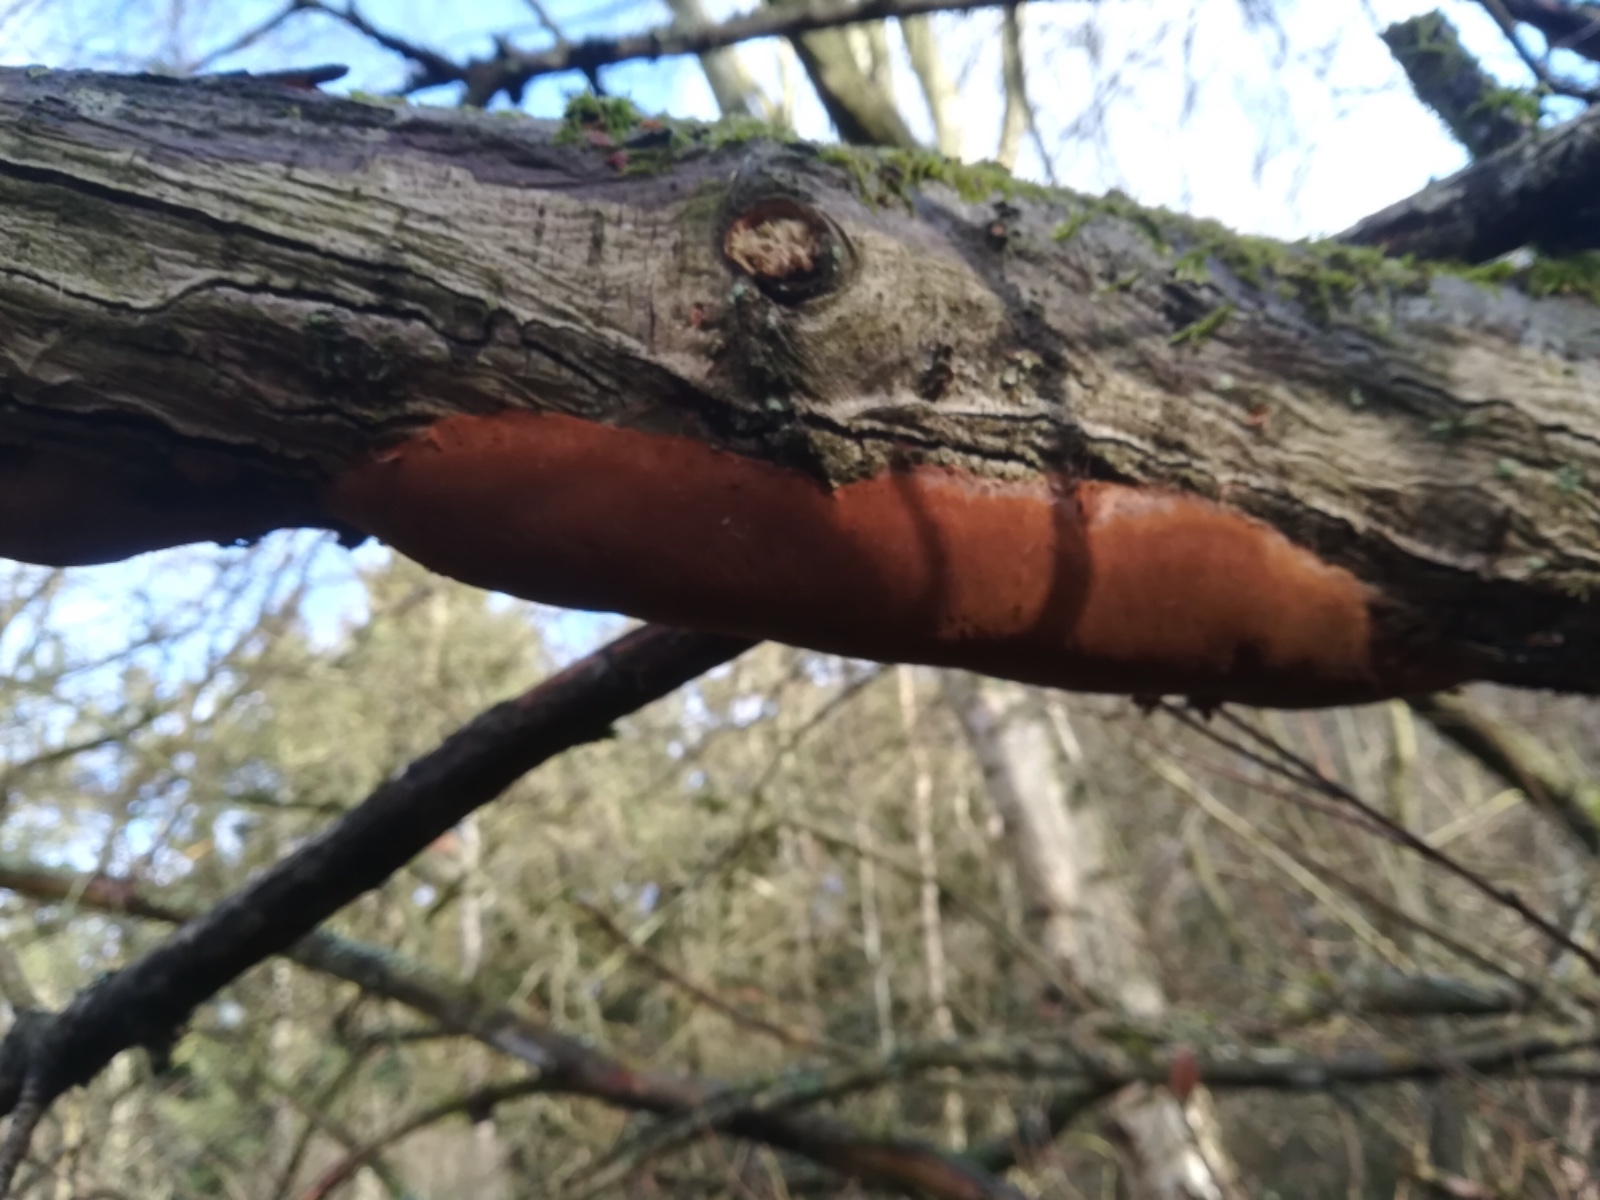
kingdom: Fungi
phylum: Basidiomycota
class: Agaricomycetes
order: Hymenochaetales
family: Hymenochaetaceae
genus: Fomitiporia
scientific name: Fomitiporia punctata
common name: pude-ildporesvamp
